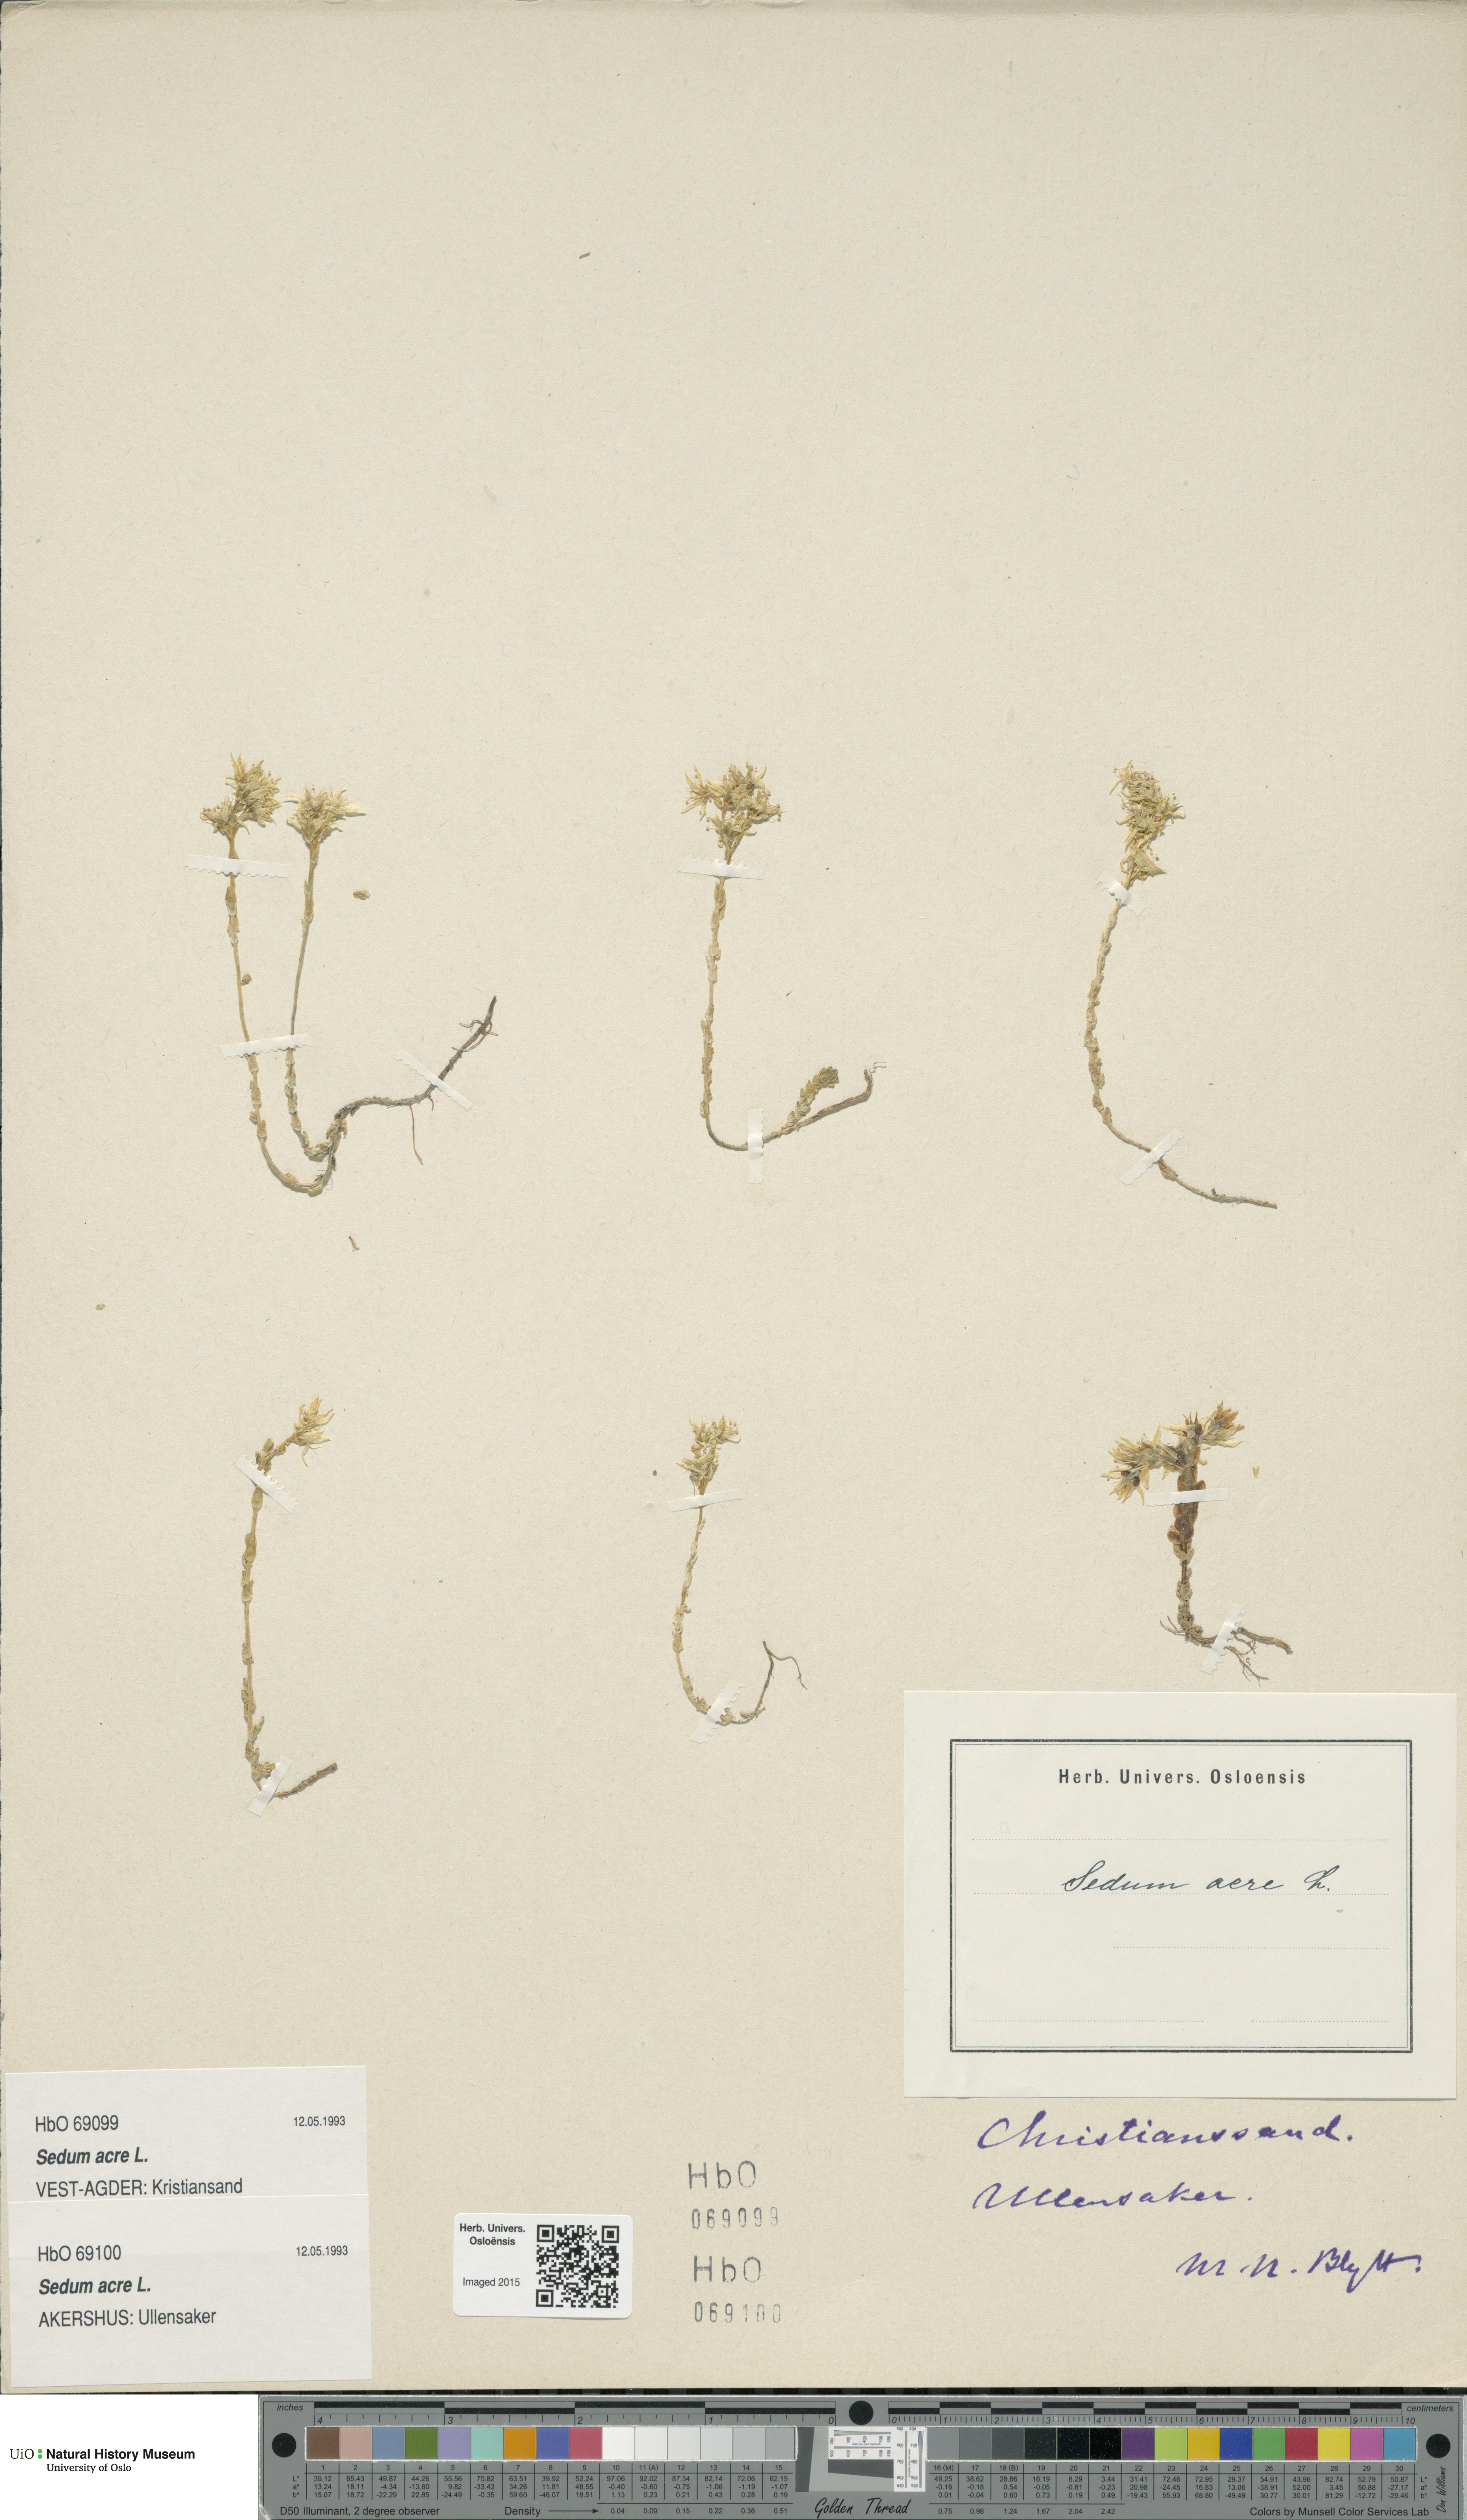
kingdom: Plantae
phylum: Tracheophyta
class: Magnoliopsida
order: Saxifragales
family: Crassulaceae
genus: Sedum
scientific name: Sedum acre
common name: Biting stonecrop
